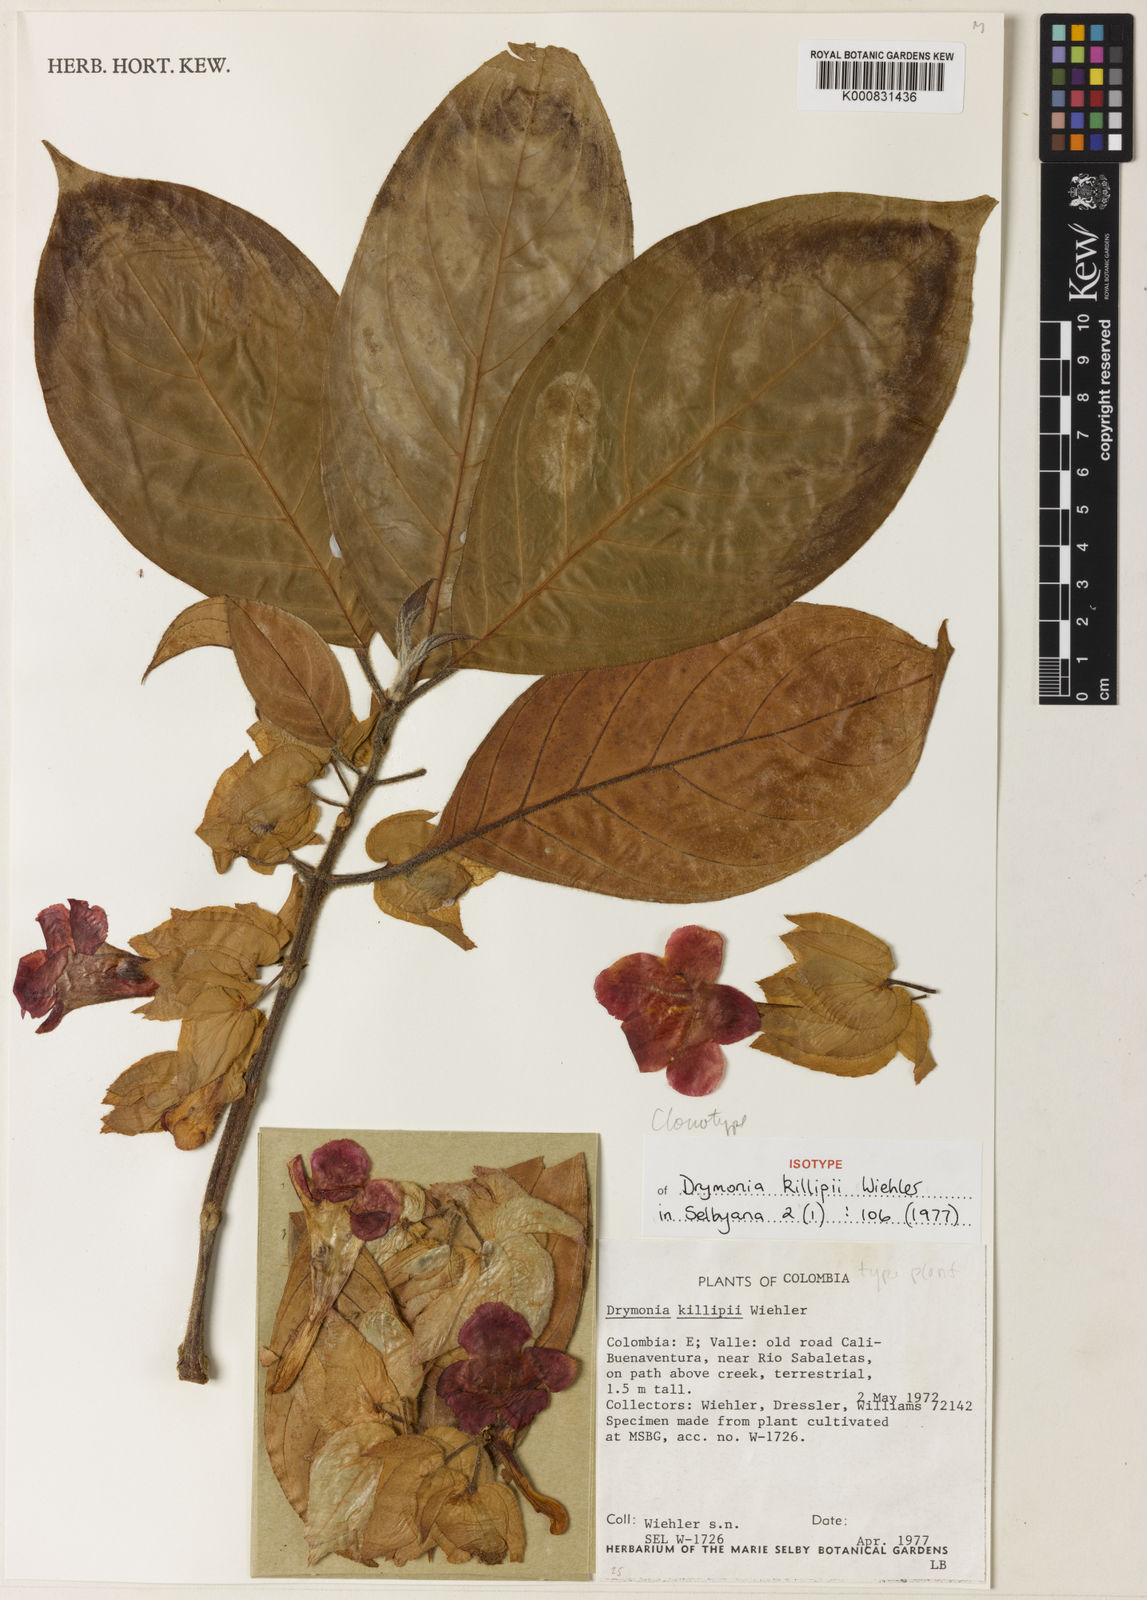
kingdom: Plantae
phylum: Tracheophyta
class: Magnoliopsida
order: Lamiales
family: Gesneriaceae
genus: Drymonia
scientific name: Drymonia killipii
